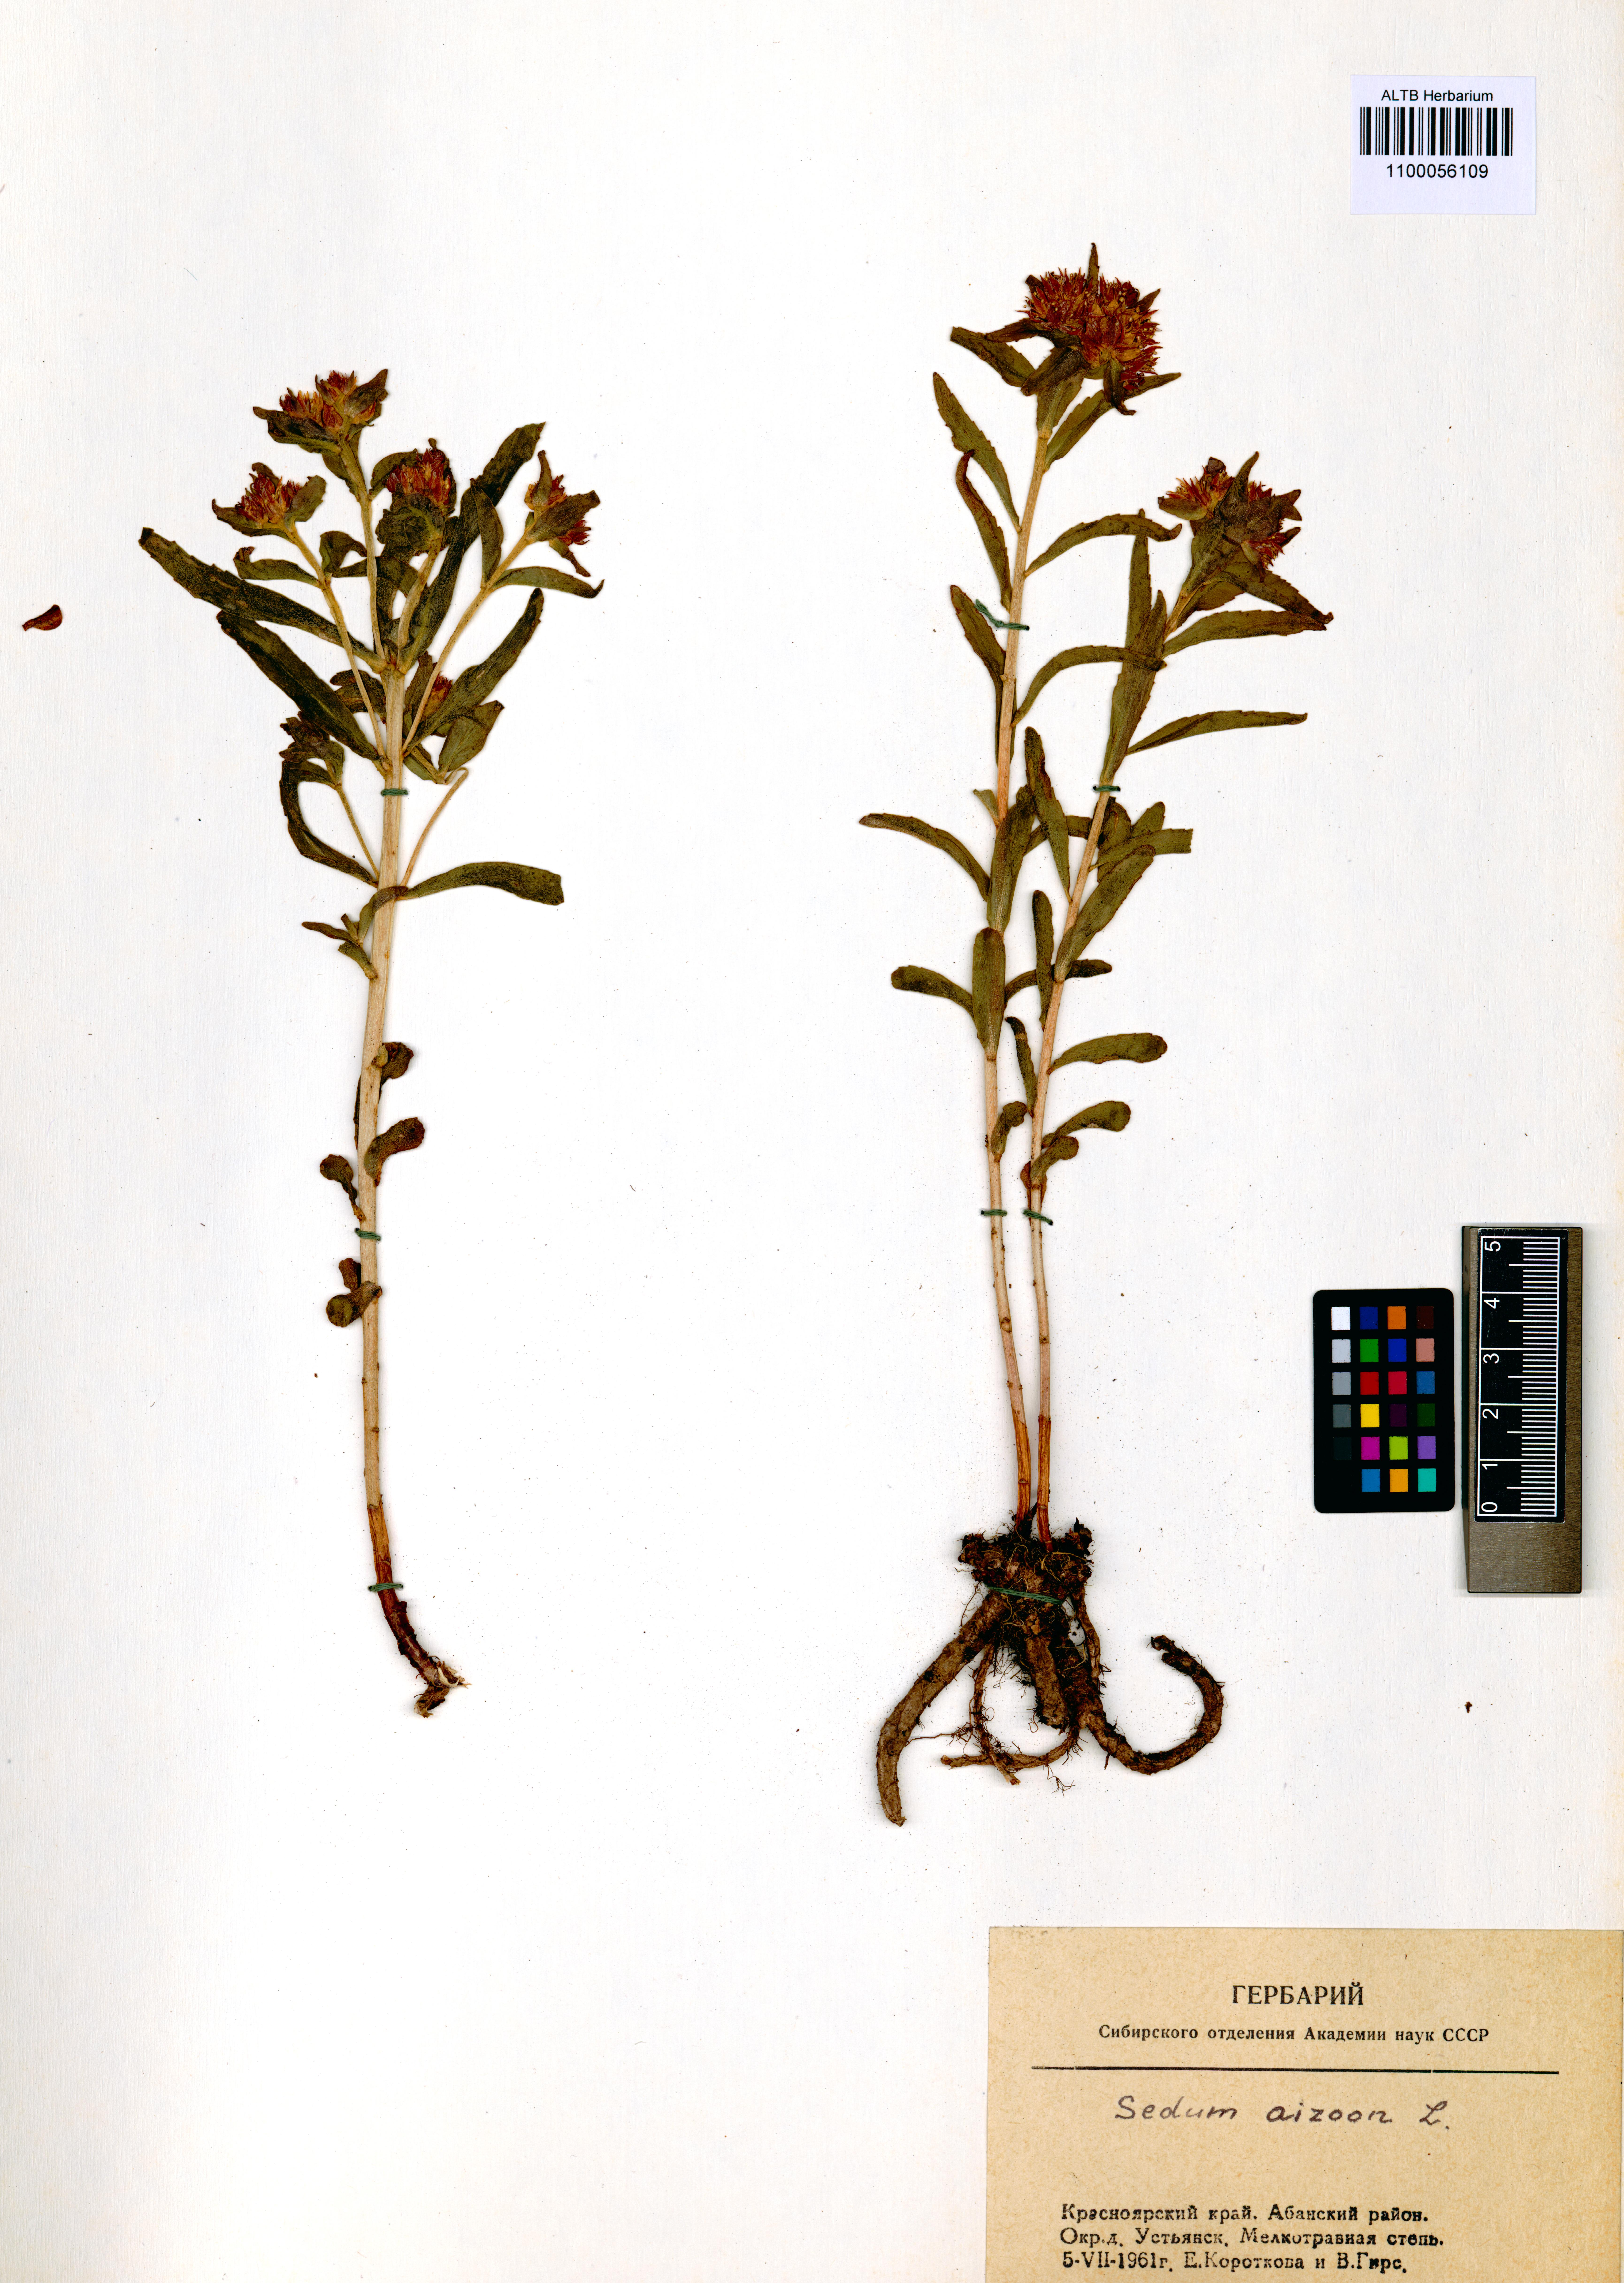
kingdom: Plantae
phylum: Tracheophyta
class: Magnoliopsida
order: Saxifragales
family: Crassulaceae
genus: Phedimus
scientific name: Phedimus aizoon
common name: Orpin aizoon
